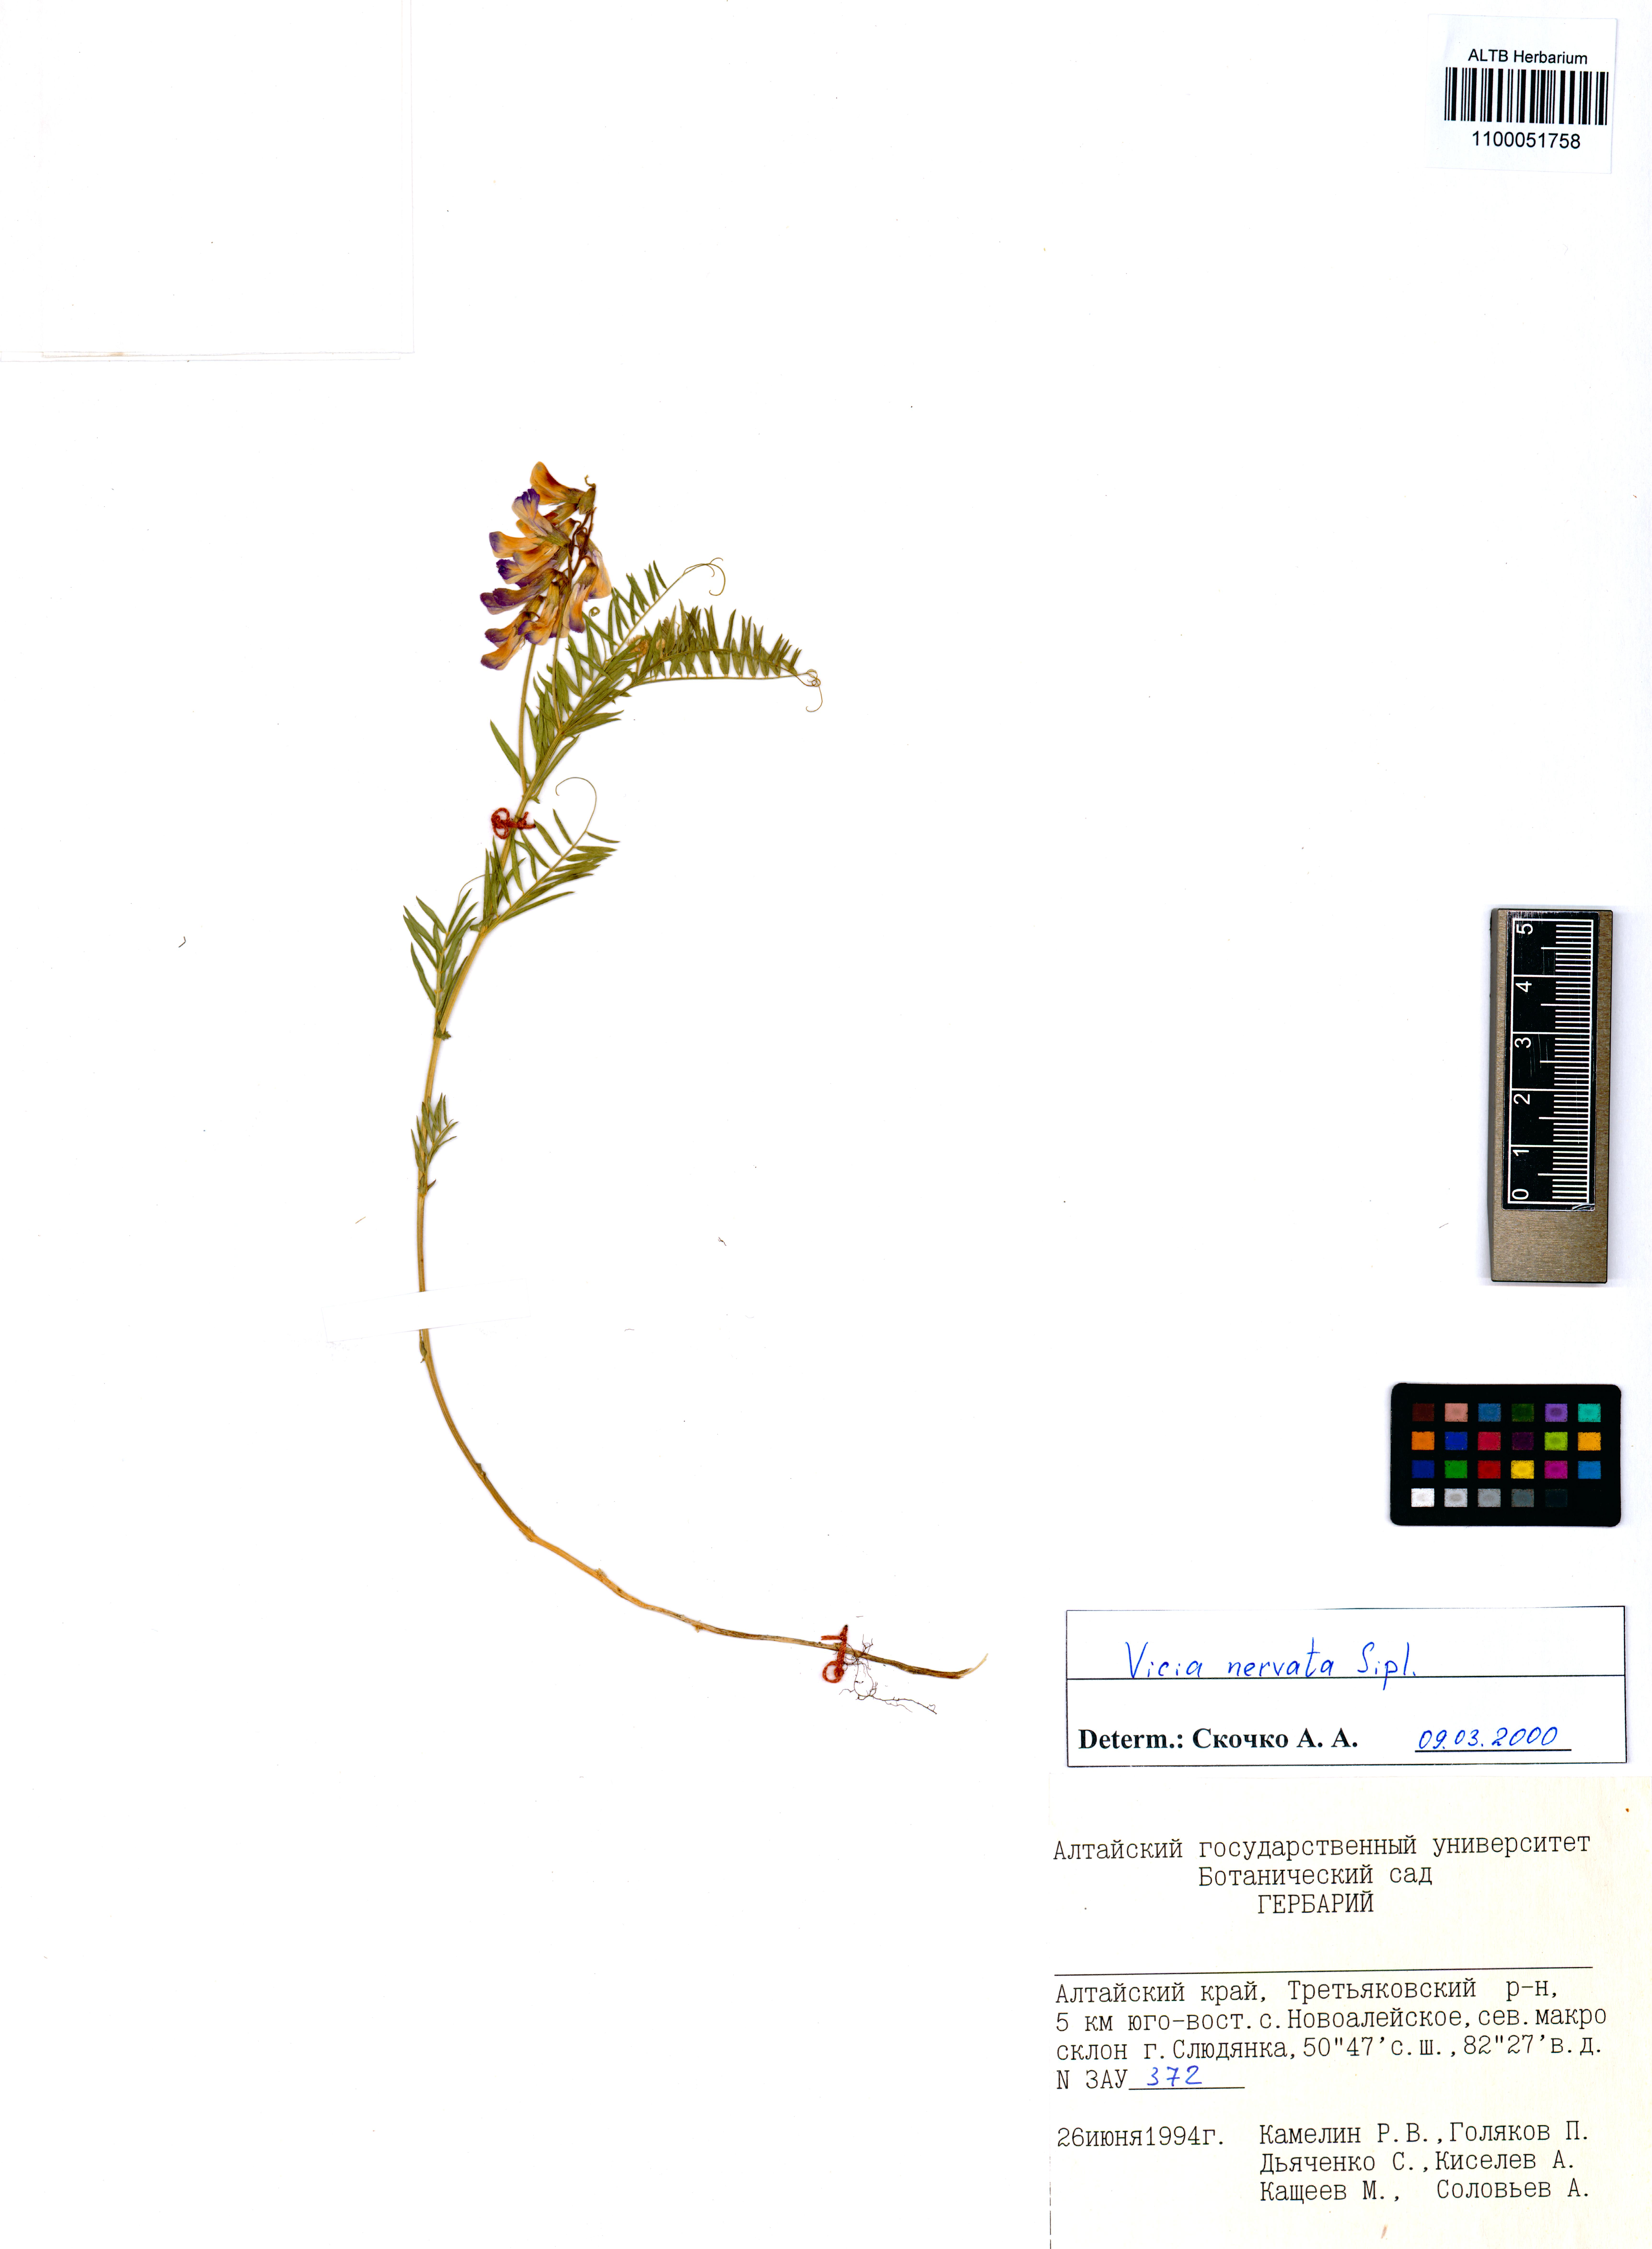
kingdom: Plantae
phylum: Tracheophyta
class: Magnoliopsida
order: Fabales
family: Fabaceae
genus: Vicia
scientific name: Vicia multicaulis
